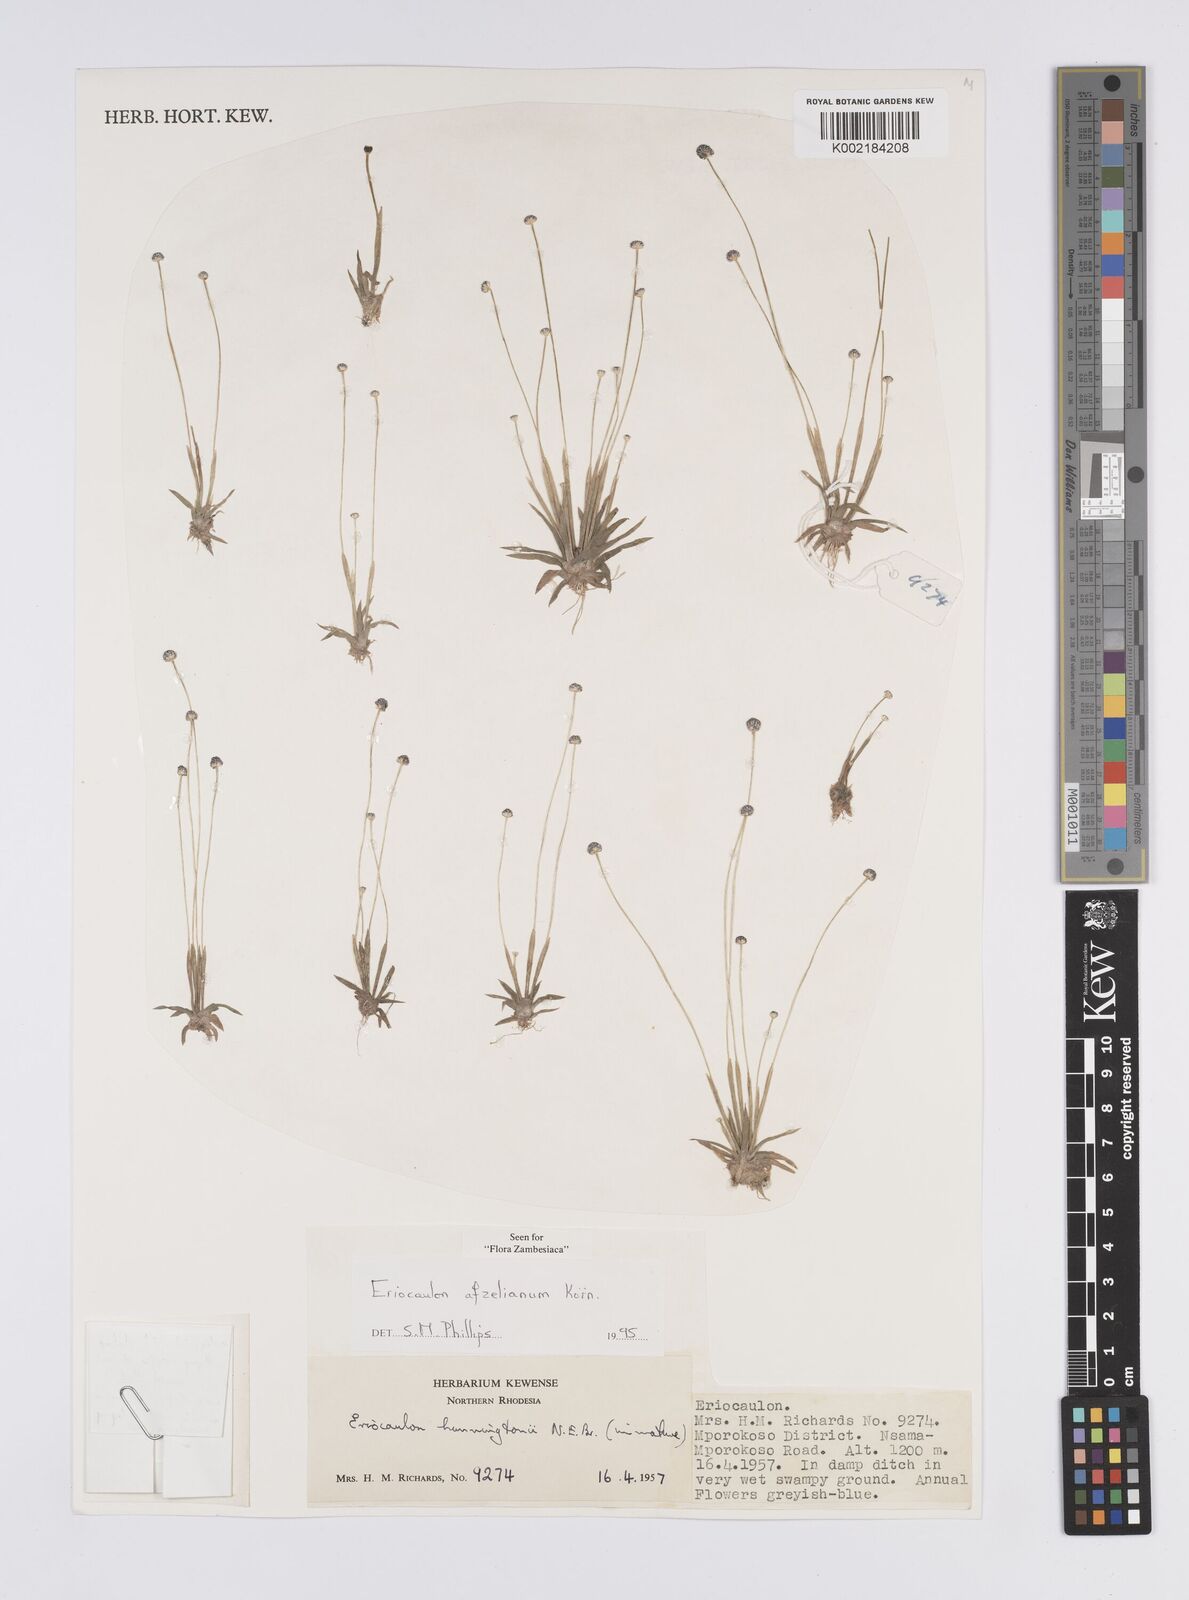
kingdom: Plantae
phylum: Tracheophyta
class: Liliopsida
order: Poales
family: Eriocaulaceae
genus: Eriocaulon
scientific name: Eriocaulon afzelianum
